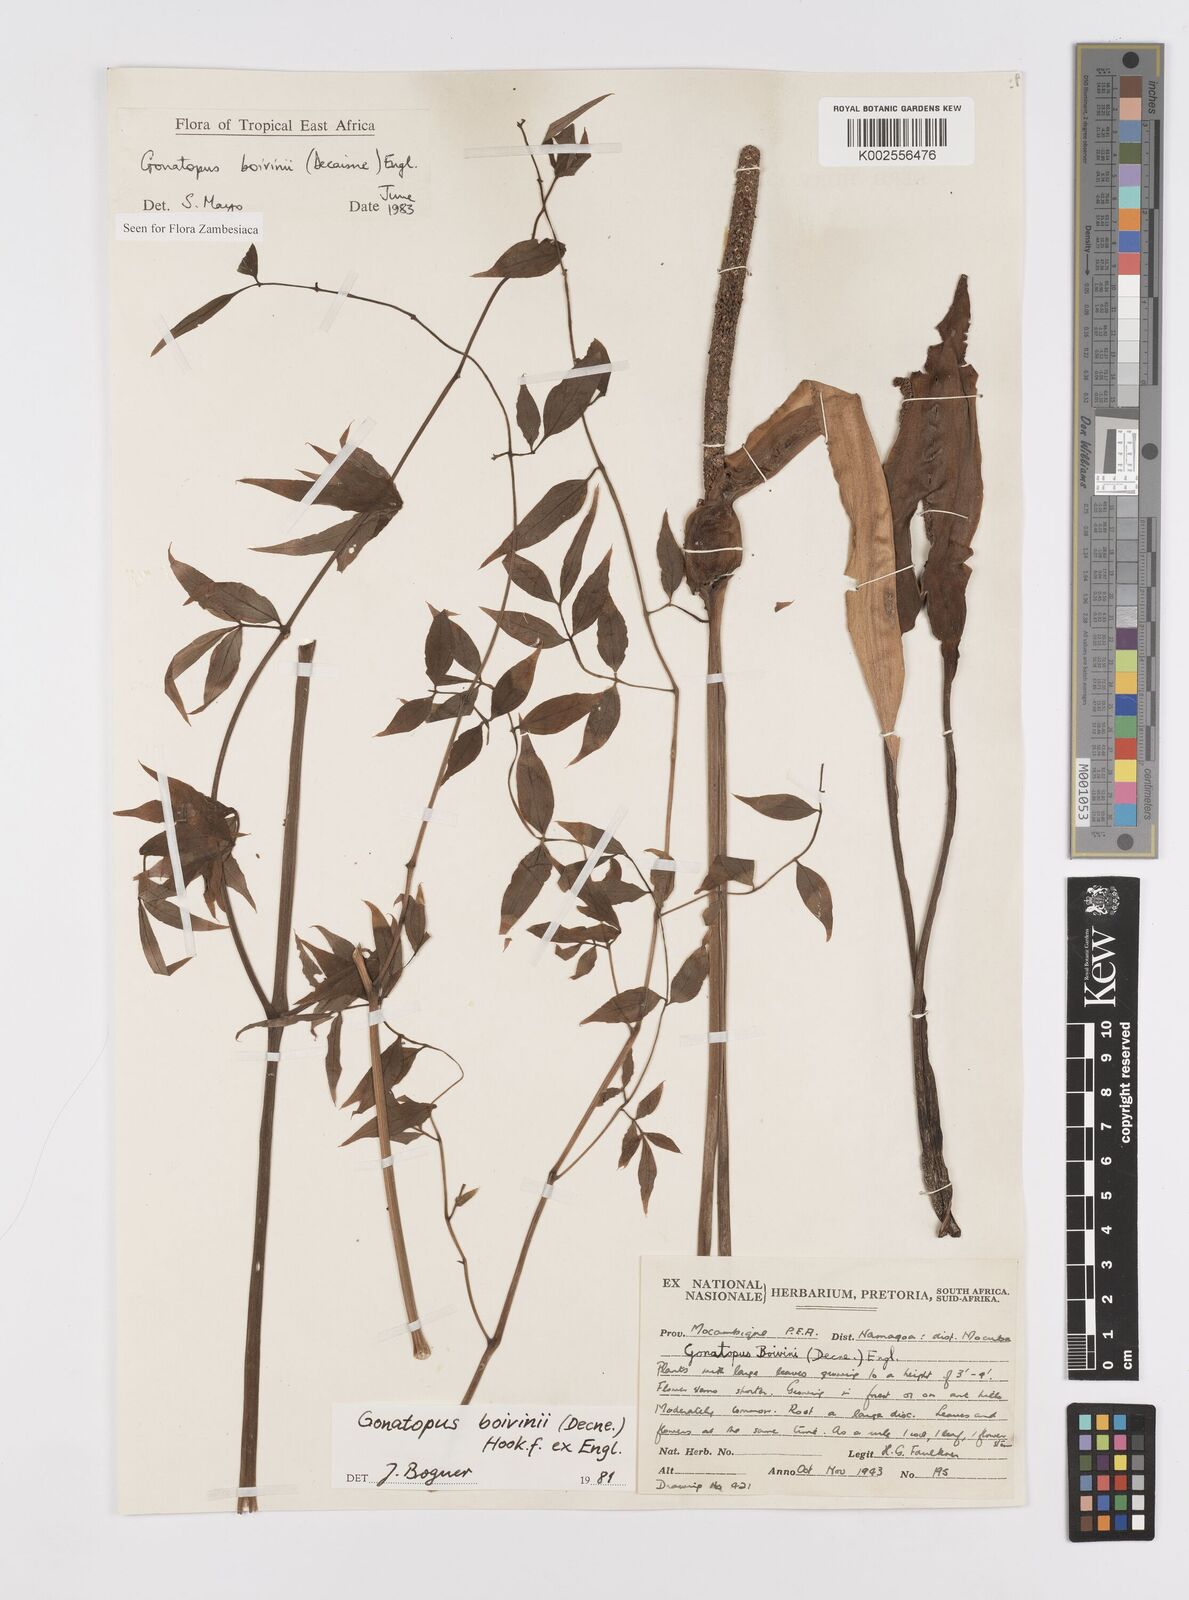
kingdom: Plantae
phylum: Tracheophyta
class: Liliopsida
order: Alismatales
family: Araceae
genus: Gonatopus
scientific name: Gonatopus boivinii
